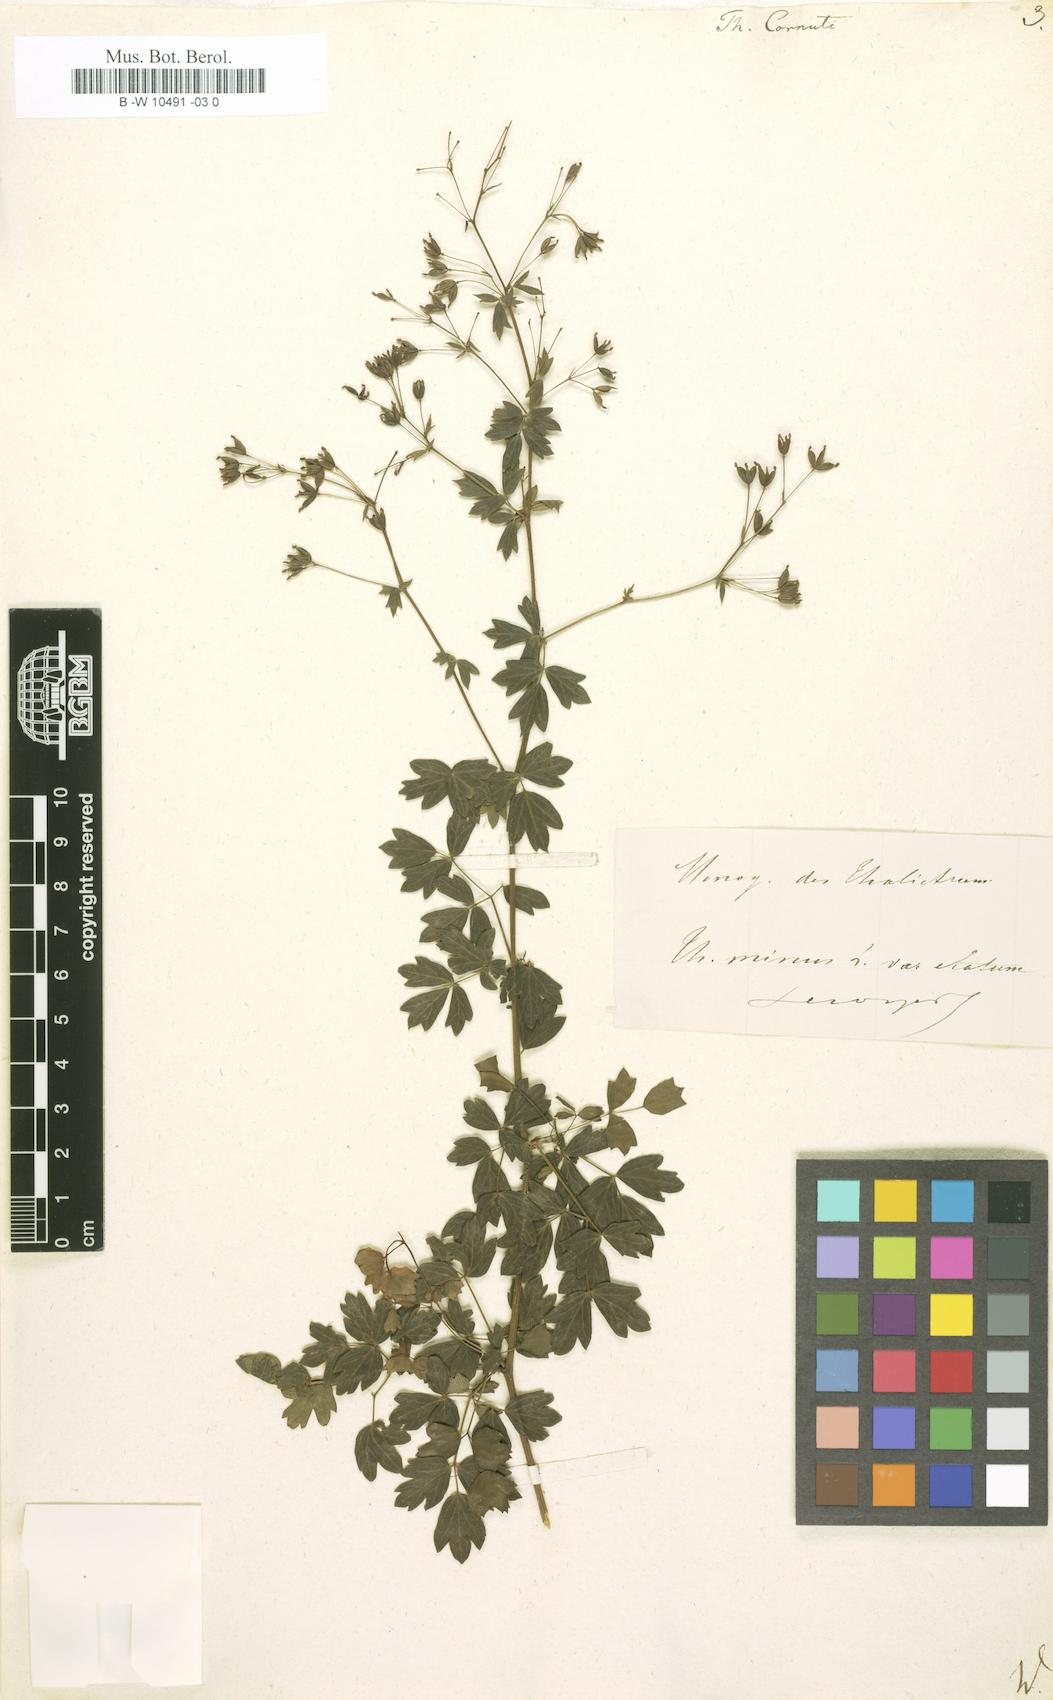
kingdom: Plantae
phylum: Tracheophyta
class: Magnoliopsida
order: Ranunculales
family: Ranunculaceae
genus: Thalictrum
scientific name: Thalictrum cornuti
